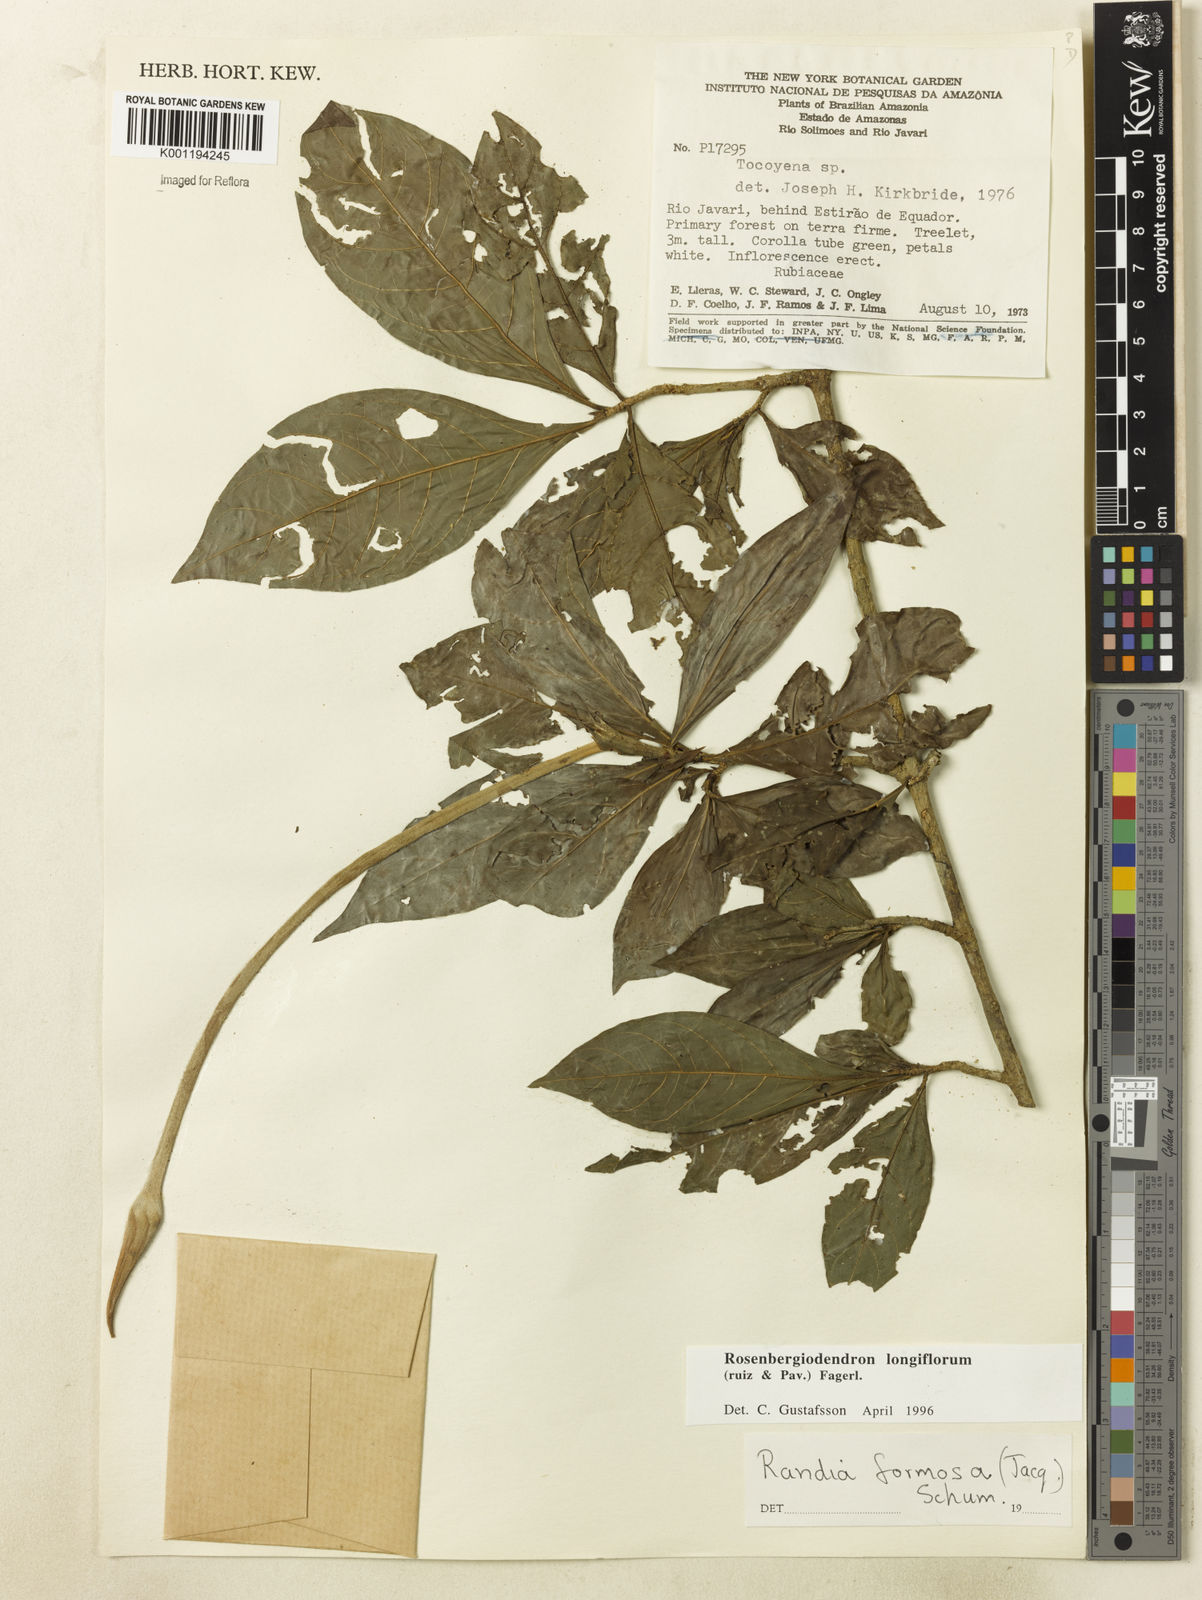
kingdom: Plantae
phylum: Tracheophyta
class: Magnoliopsida
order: Gentianales
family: Rubiaceae
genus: Rosenbergiodendron
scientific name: Rosenbergiodendron longiflorum
